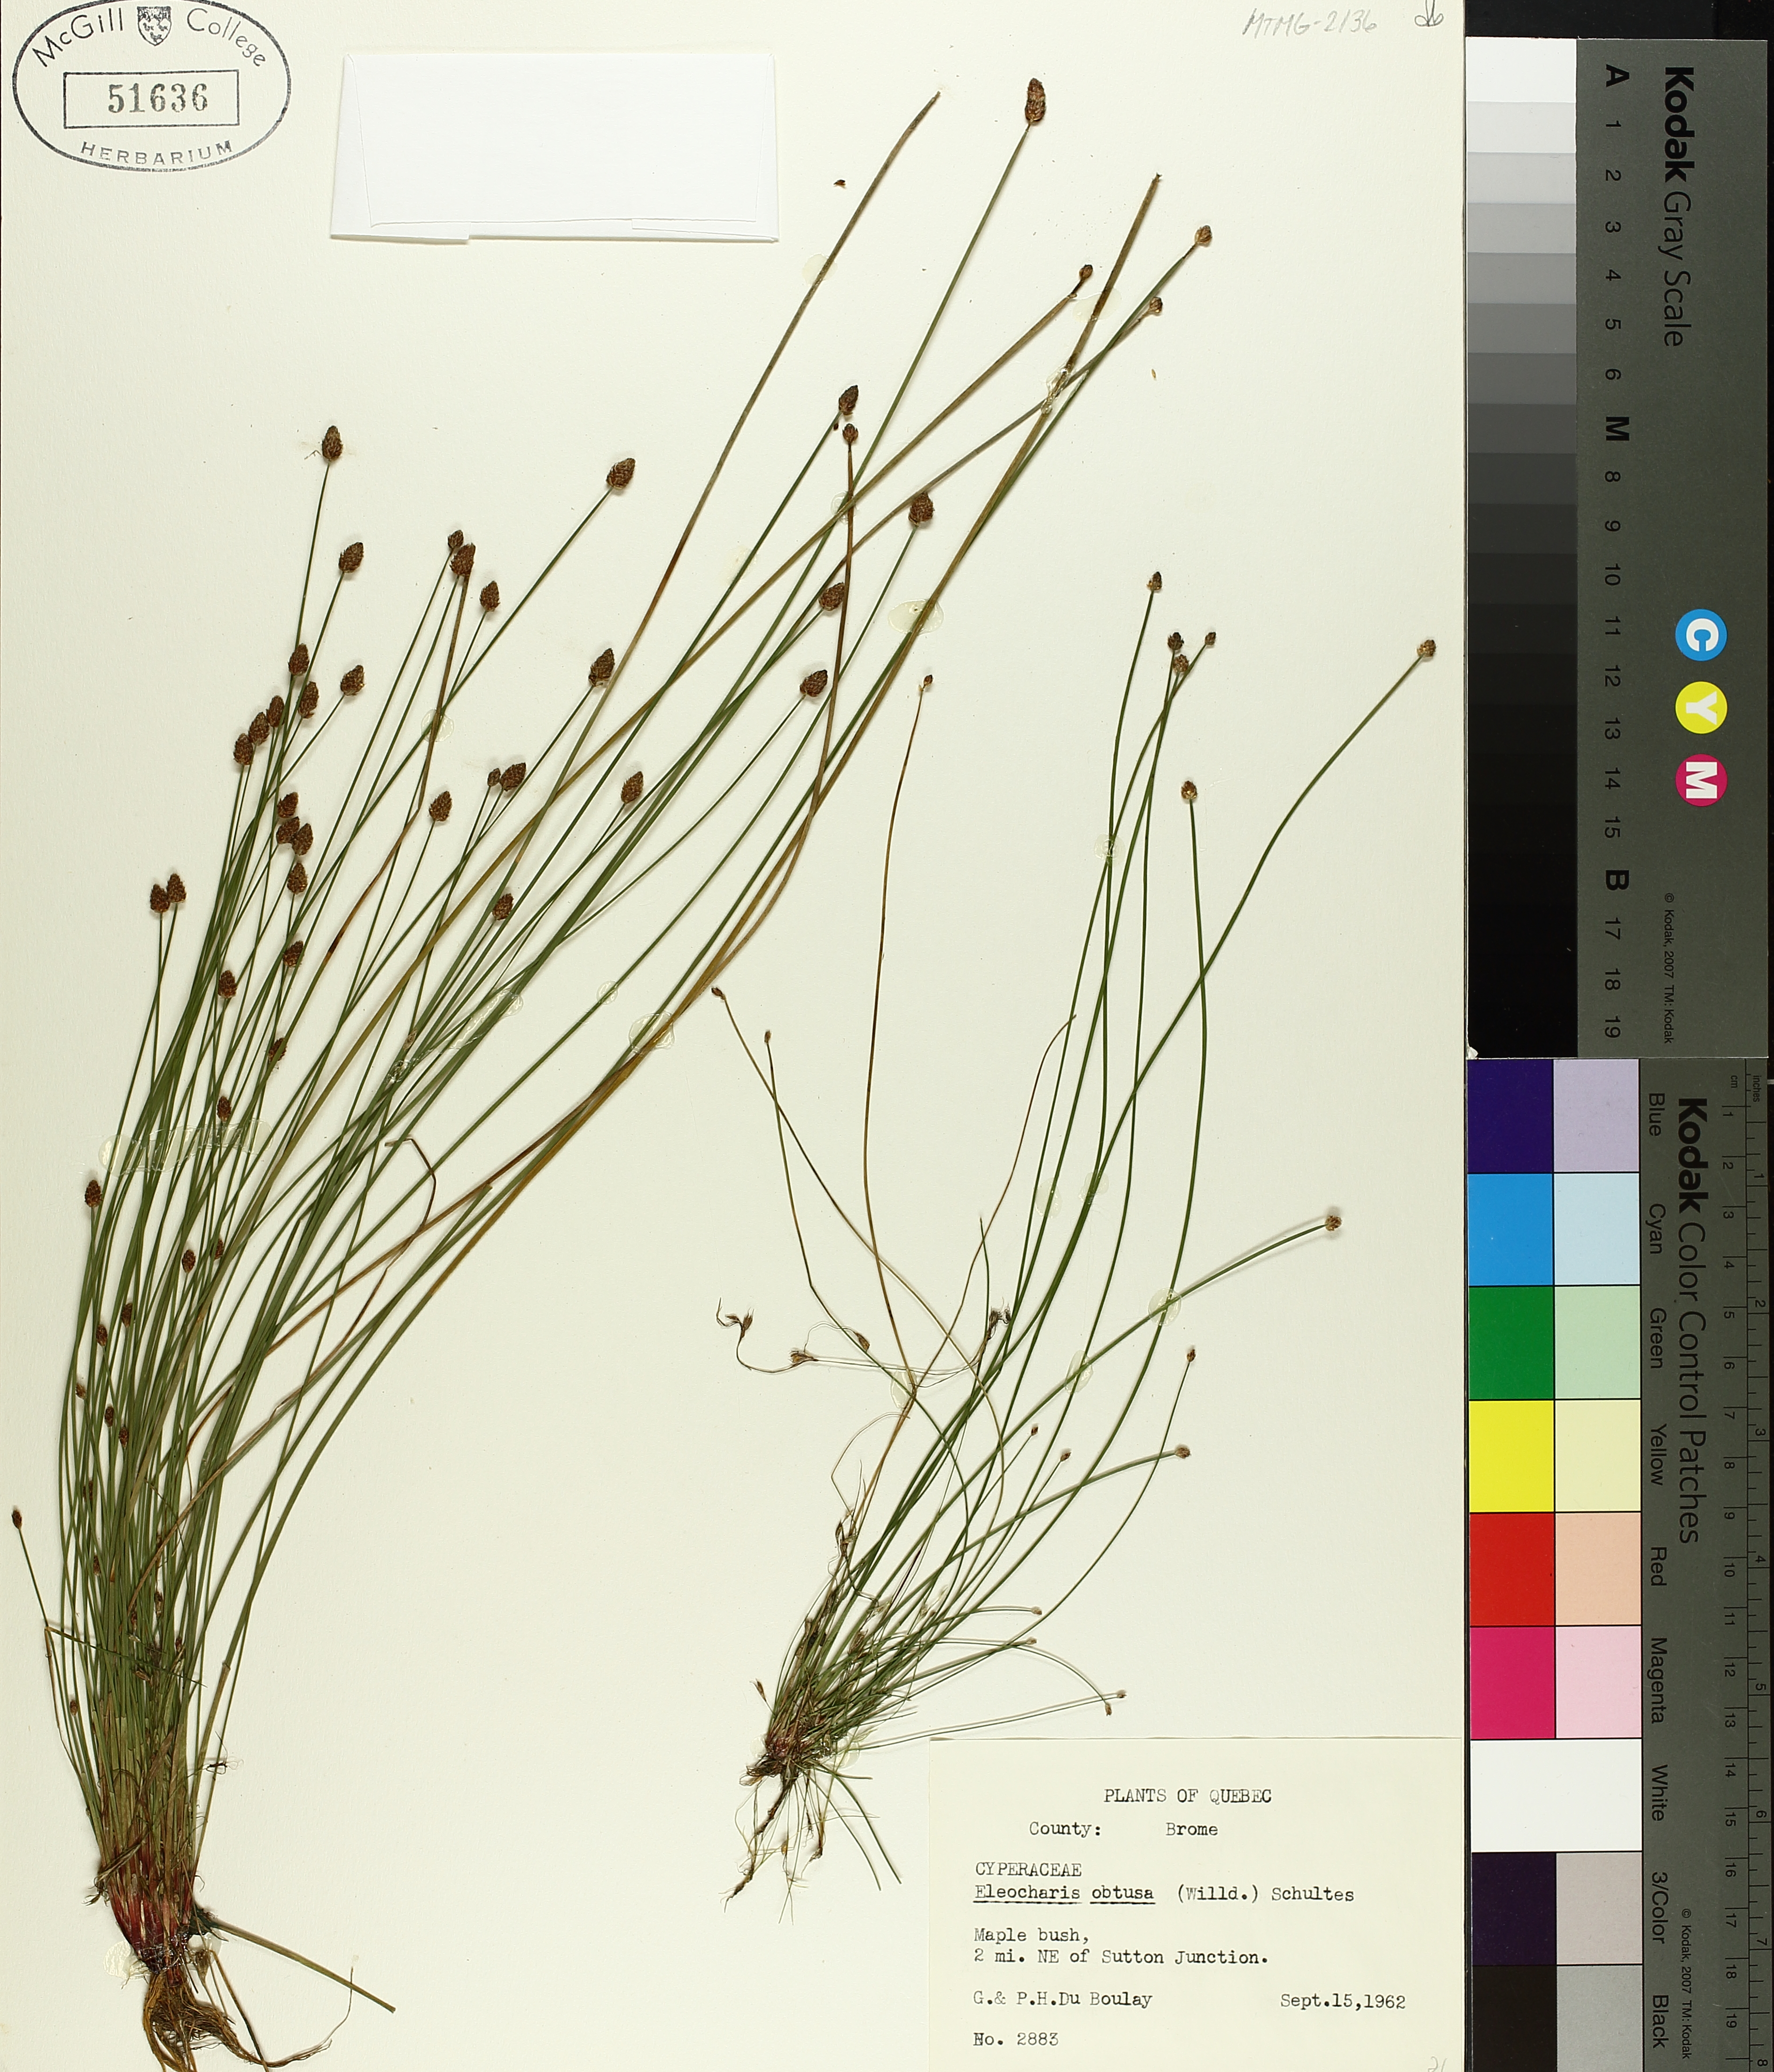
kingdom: Plantae
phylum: Tracheophyta
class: Liliopsida
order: Poales
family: Cyperaceae
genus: Eleocharis
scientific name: Eleocharis obtusa
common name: Blunt spikerush
